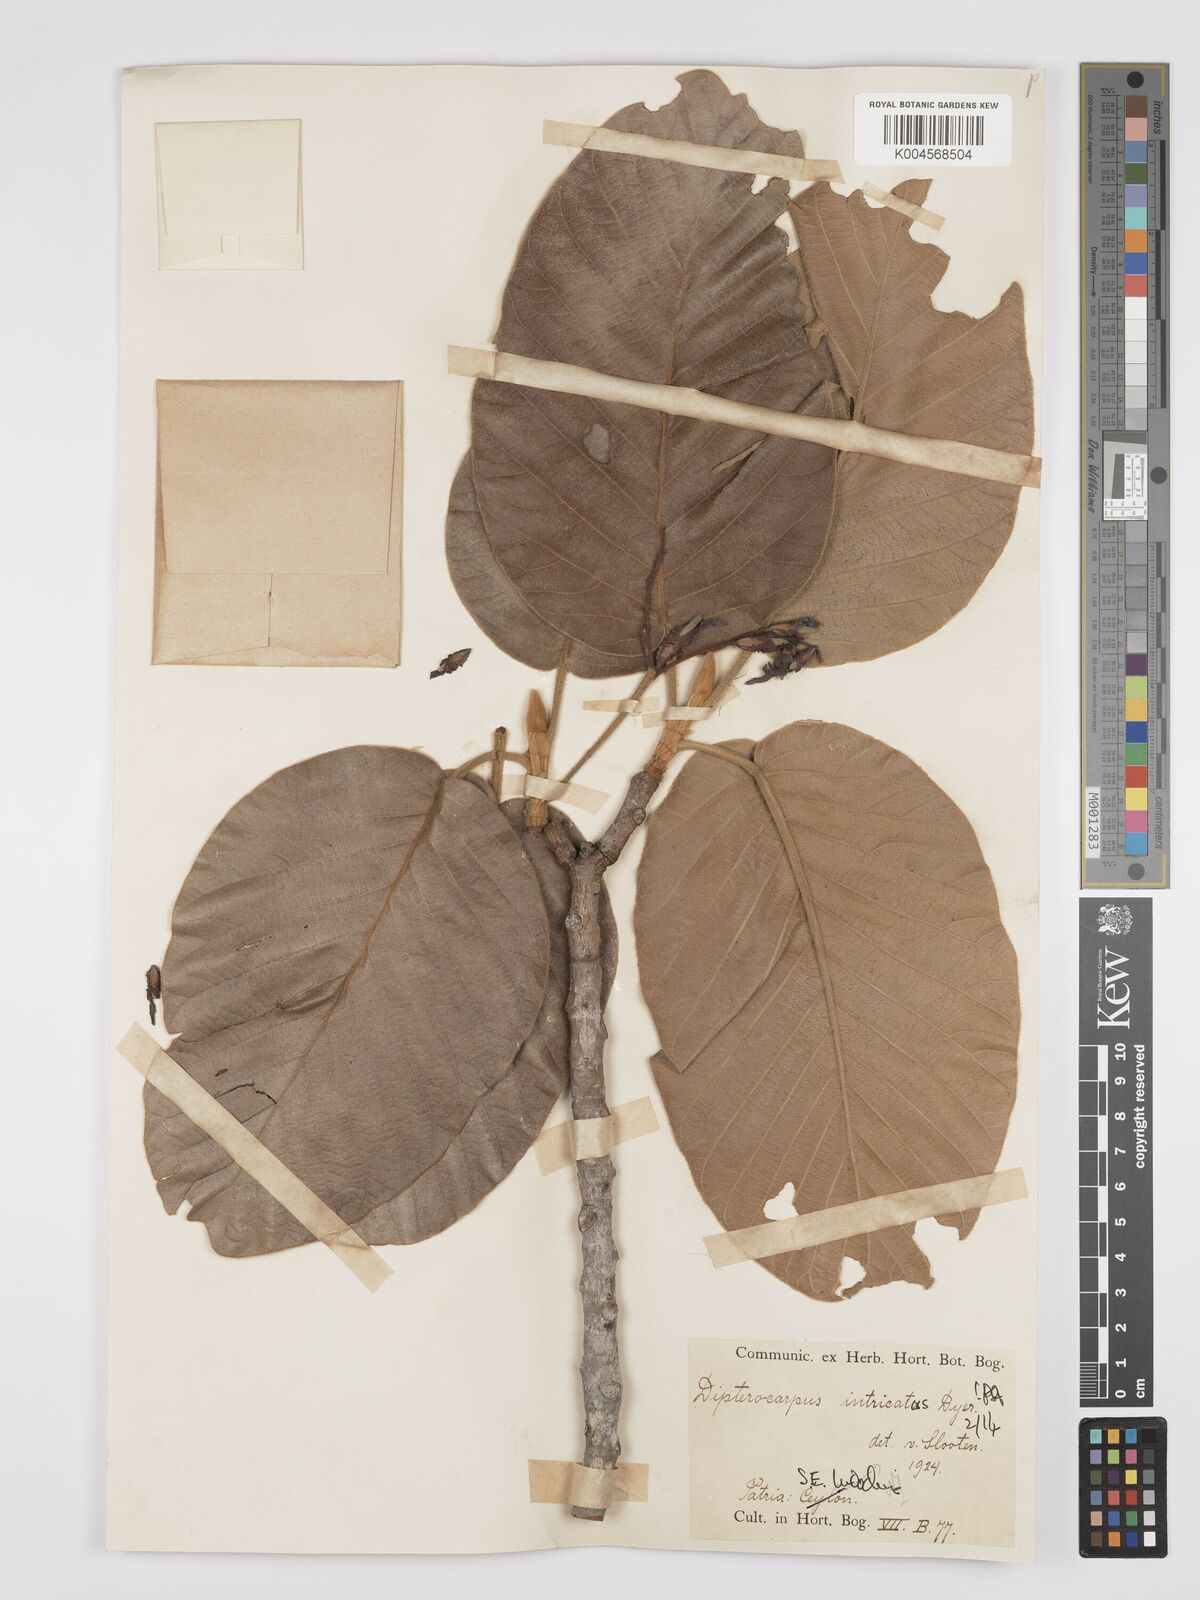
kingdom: Plantae
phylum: Tracheophyta
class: Magnoliopsida
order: Malvales
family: Dipterocarpaceae
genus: Dipterocarpus
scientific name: Dipterocarpus intricatus
